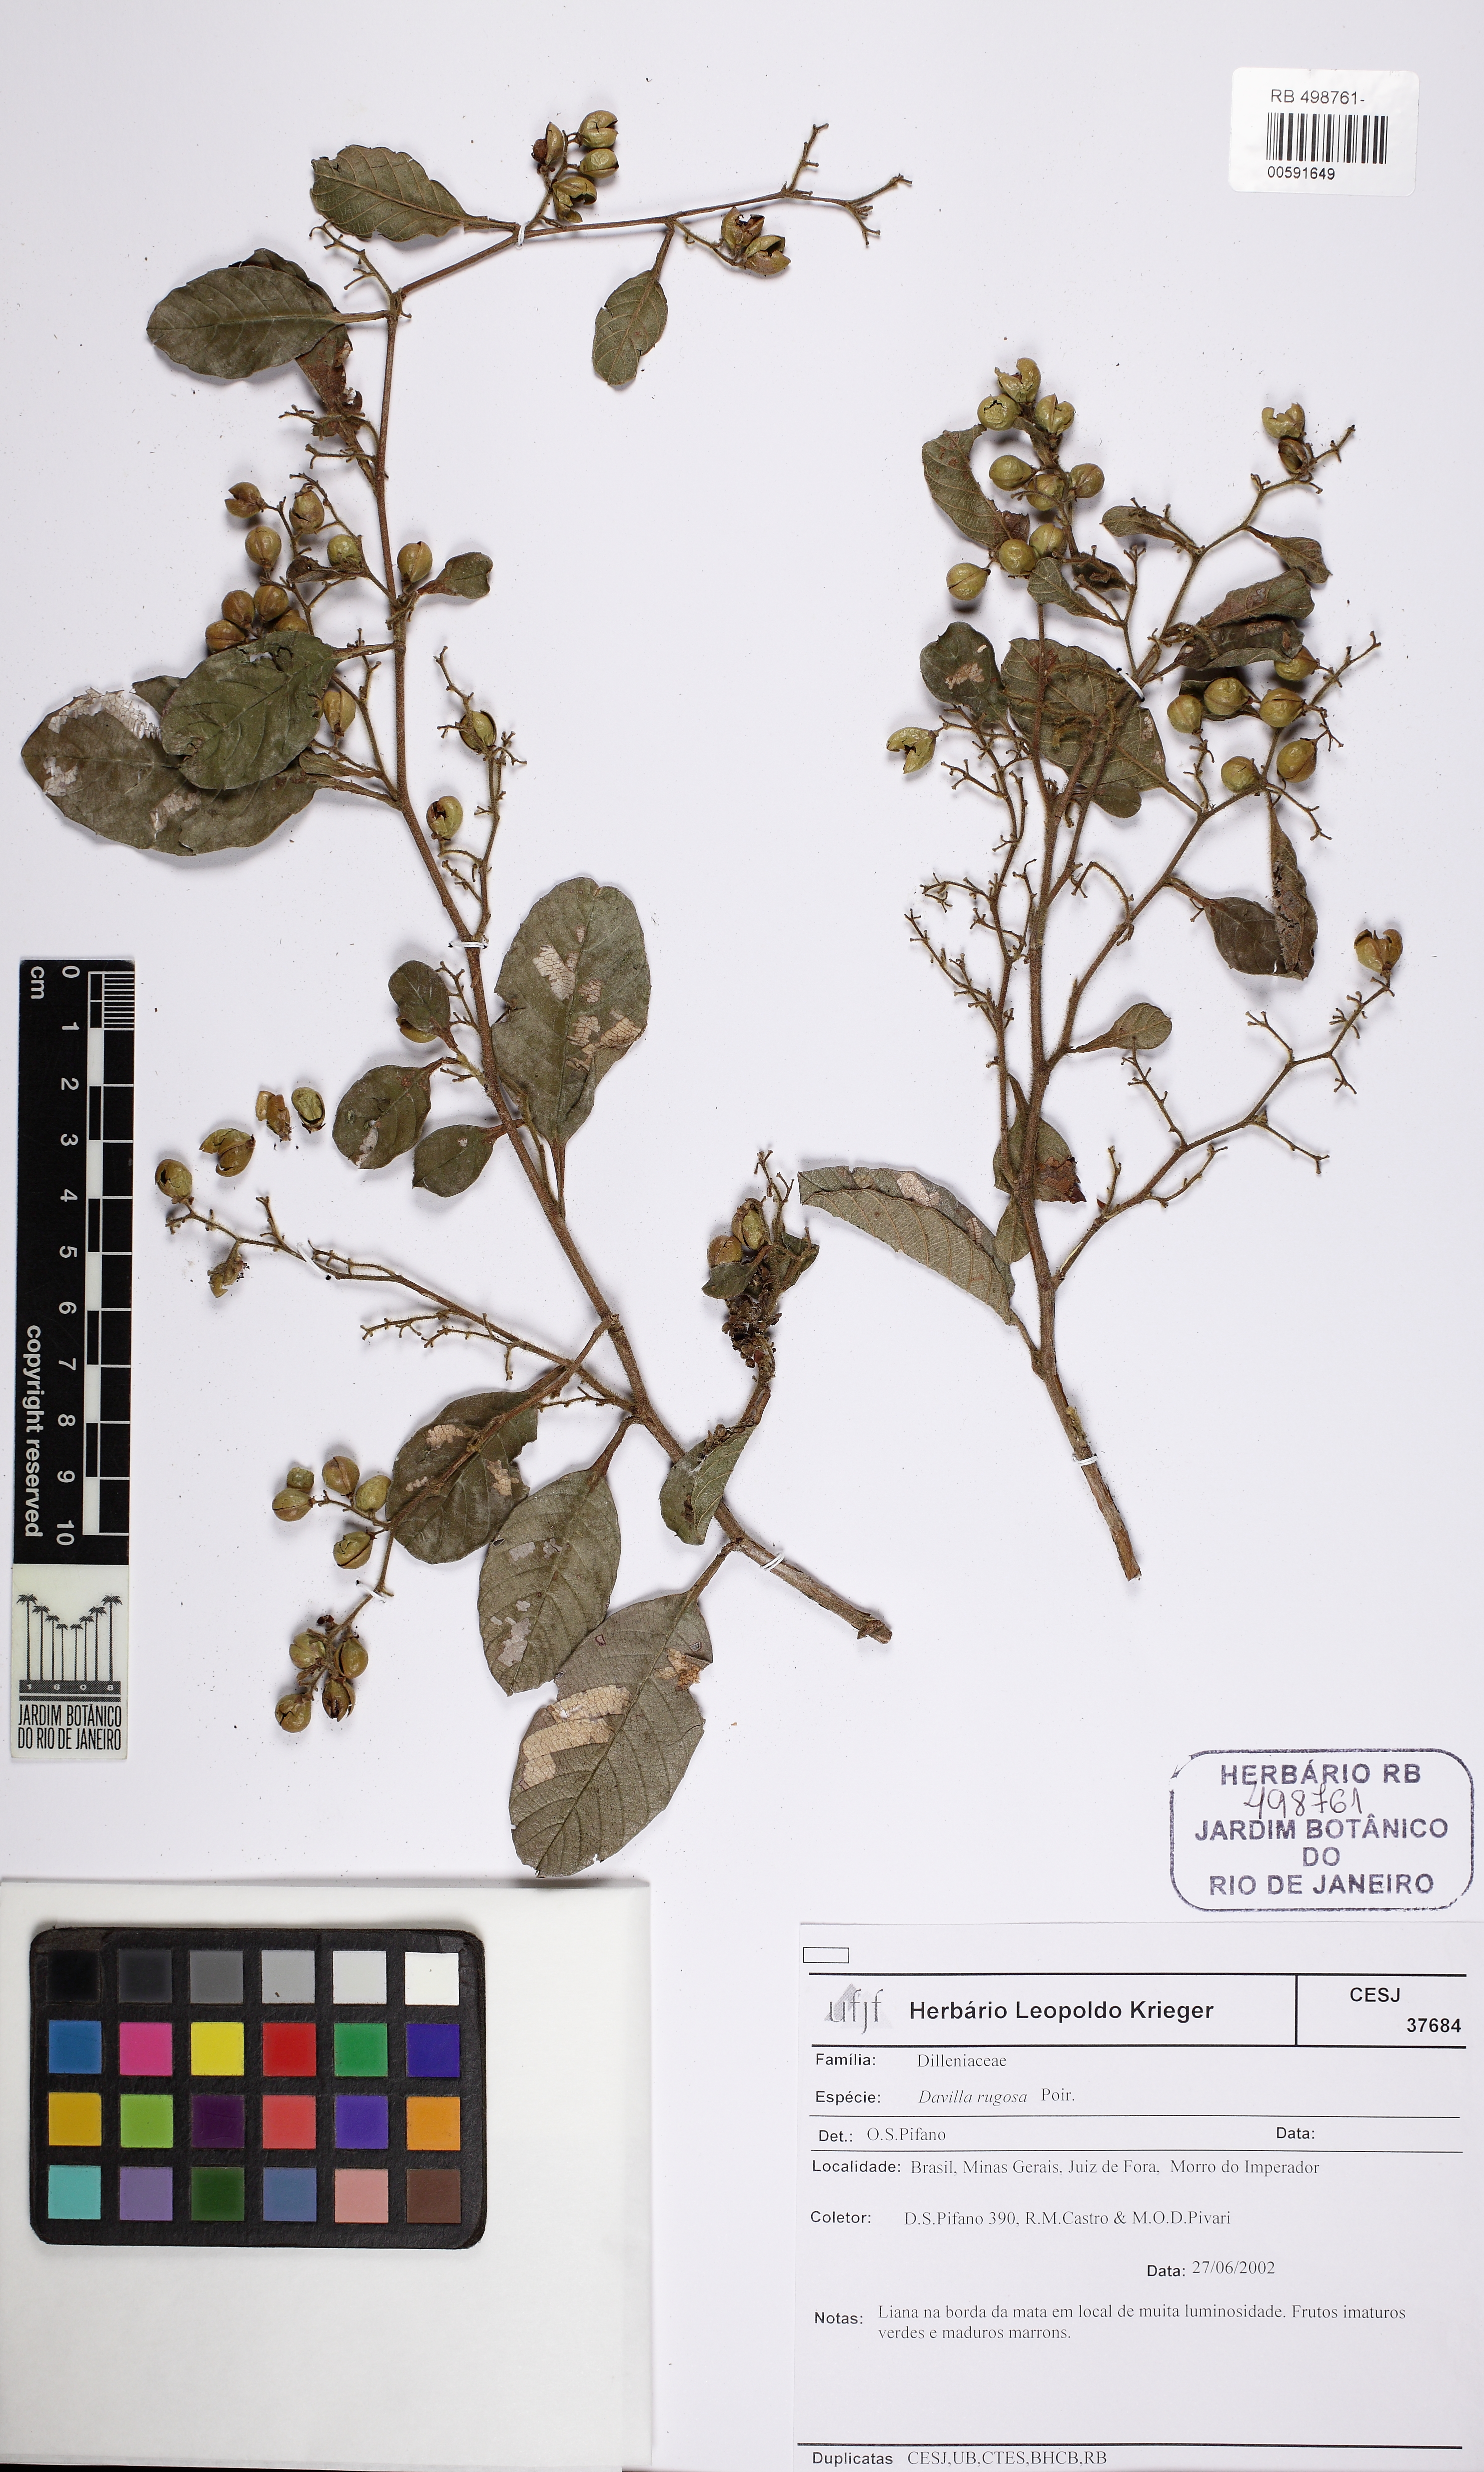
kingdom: Plantae
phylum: Tracheophyta
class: Magnoliopsida
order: Dilleniales
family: Dilleniaceae
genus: Davilla
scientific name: Davilla rugosa
